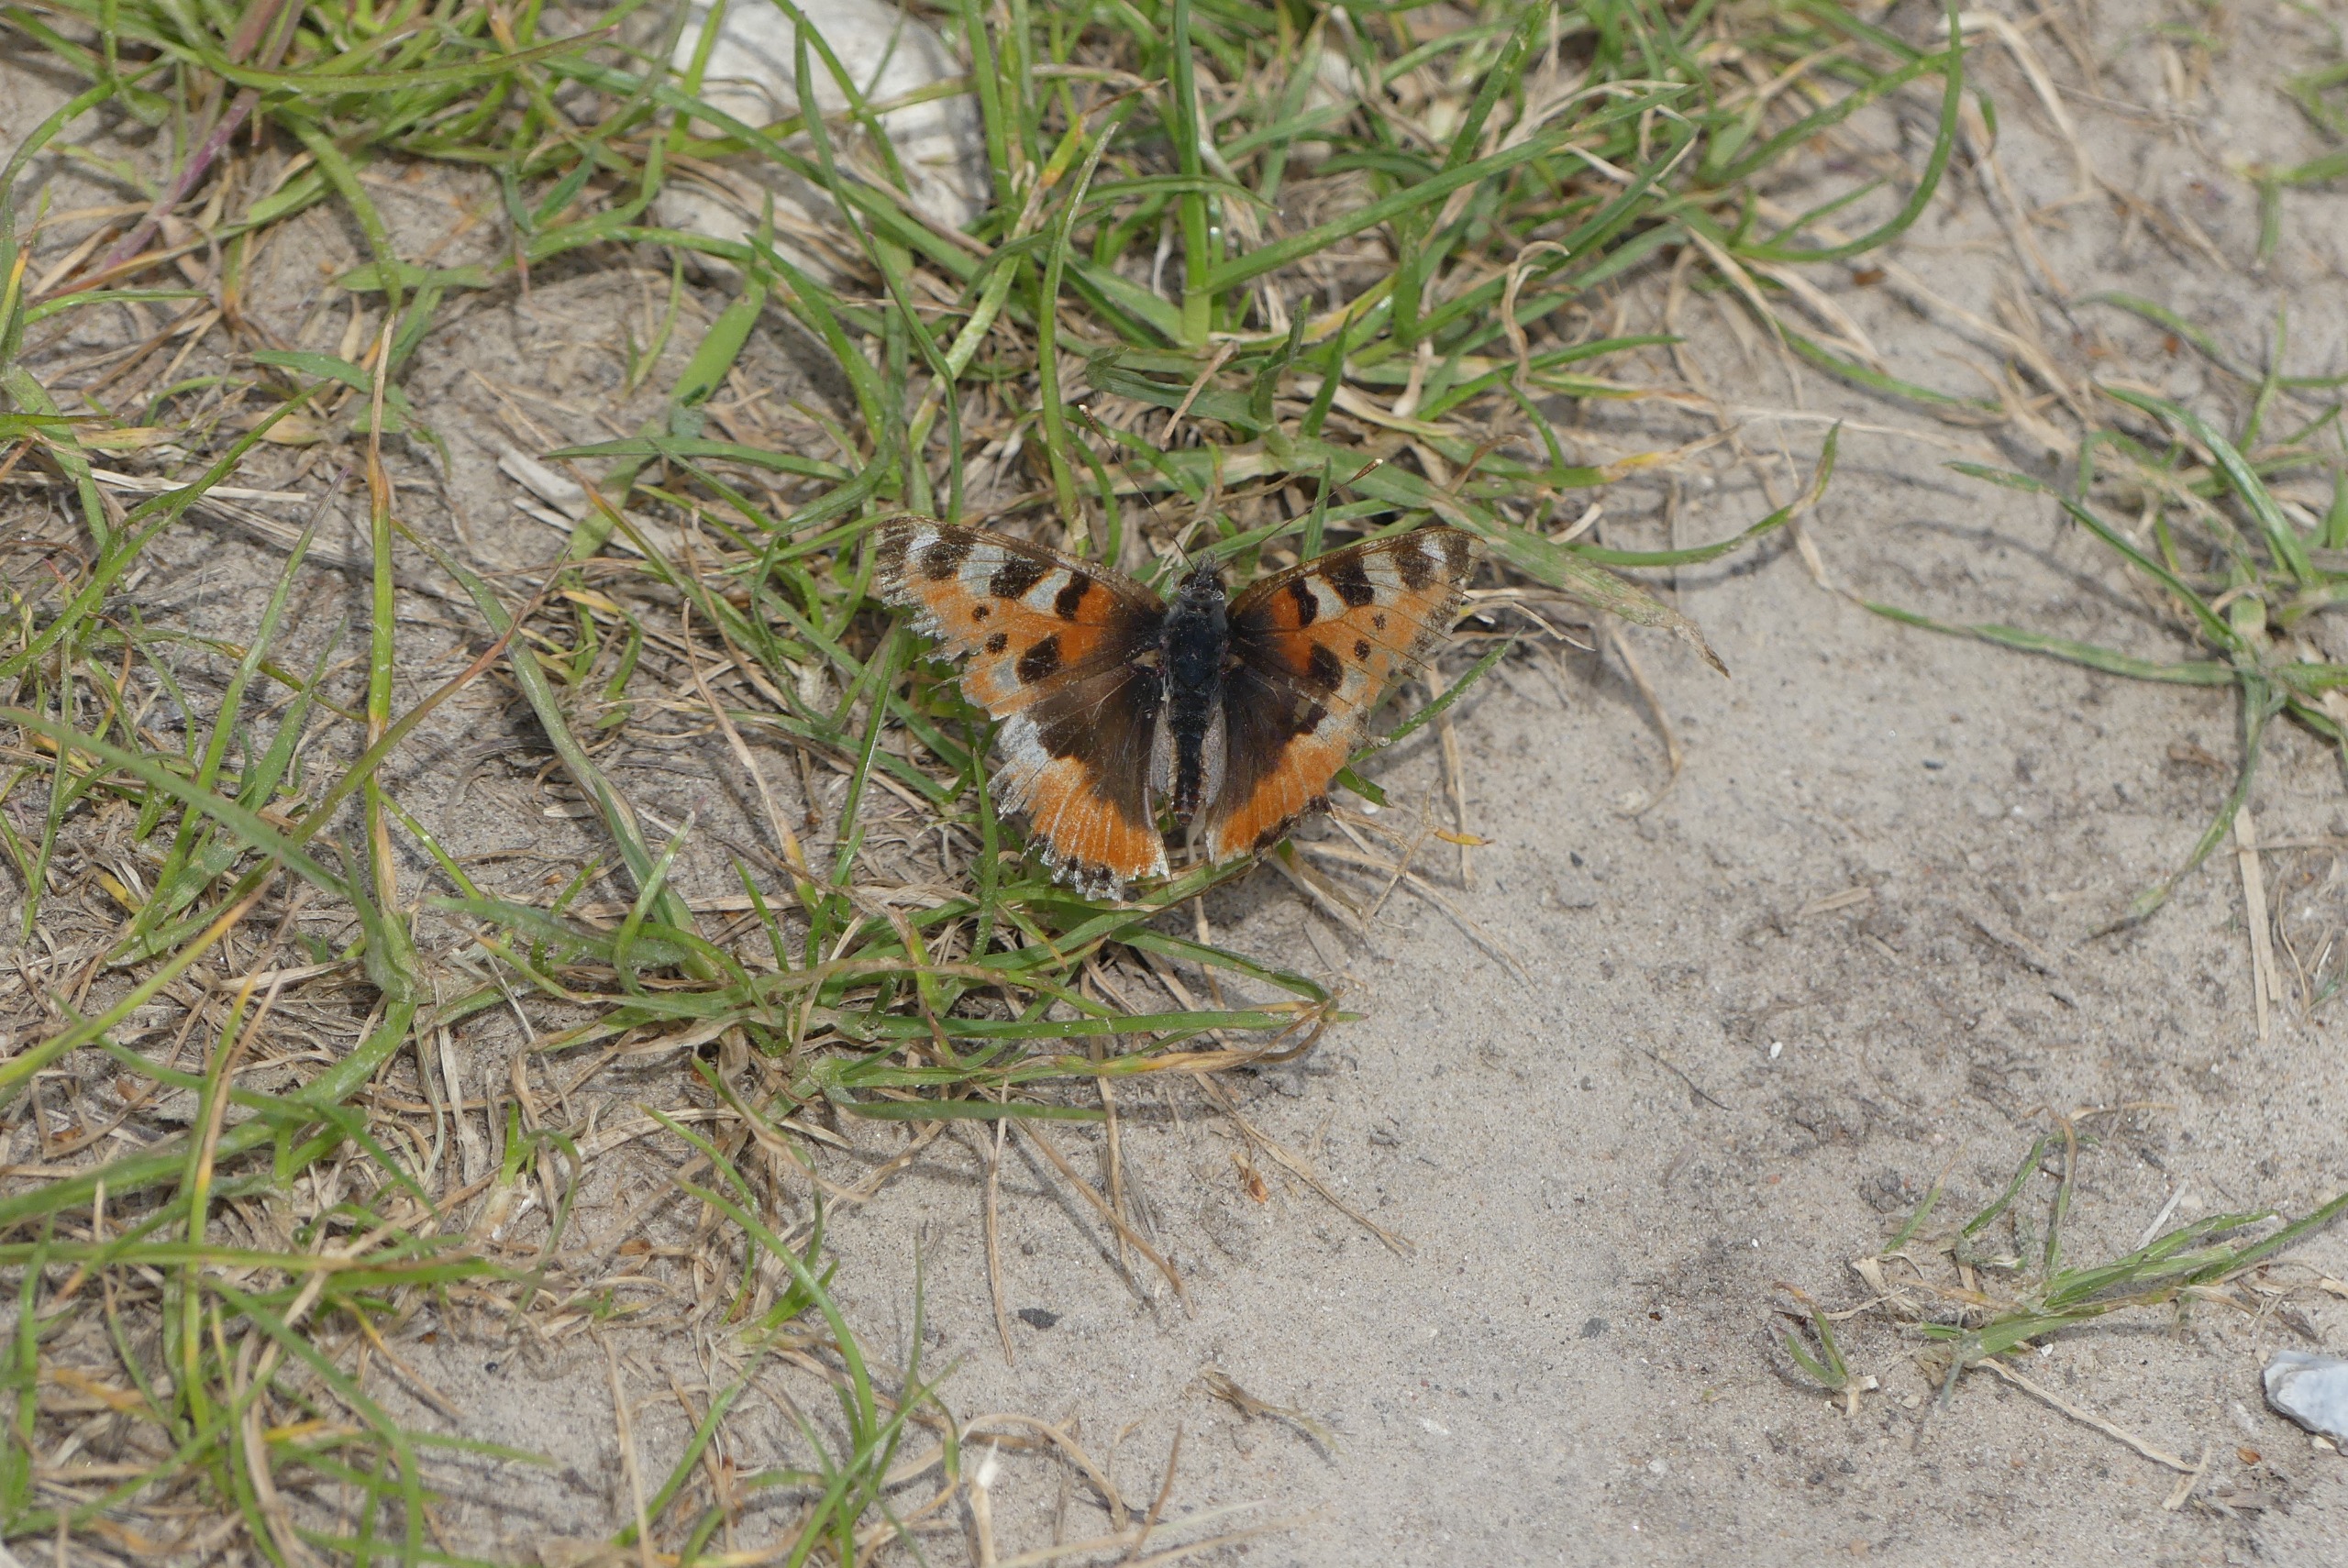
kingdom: Animalia
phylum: Arthropoda
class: Insecta
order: Lepidoptera
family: Nymphalidae
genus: Aglais
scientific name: Aglais urticae
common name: Nældens takvinge
